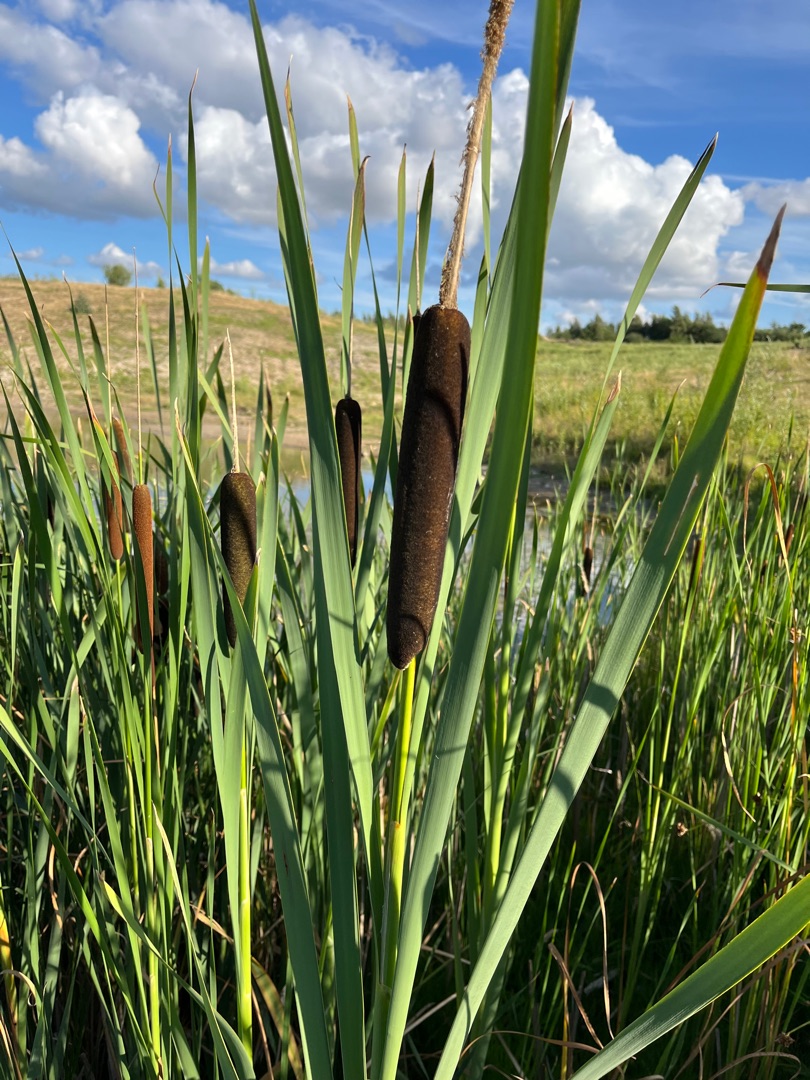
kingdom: Plantae
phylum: Tracheophyta
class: Liliopsida
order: Poales
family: Typhaceae
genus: Typha
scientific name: Typha latifolia
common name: Bredbladet dunhammer
